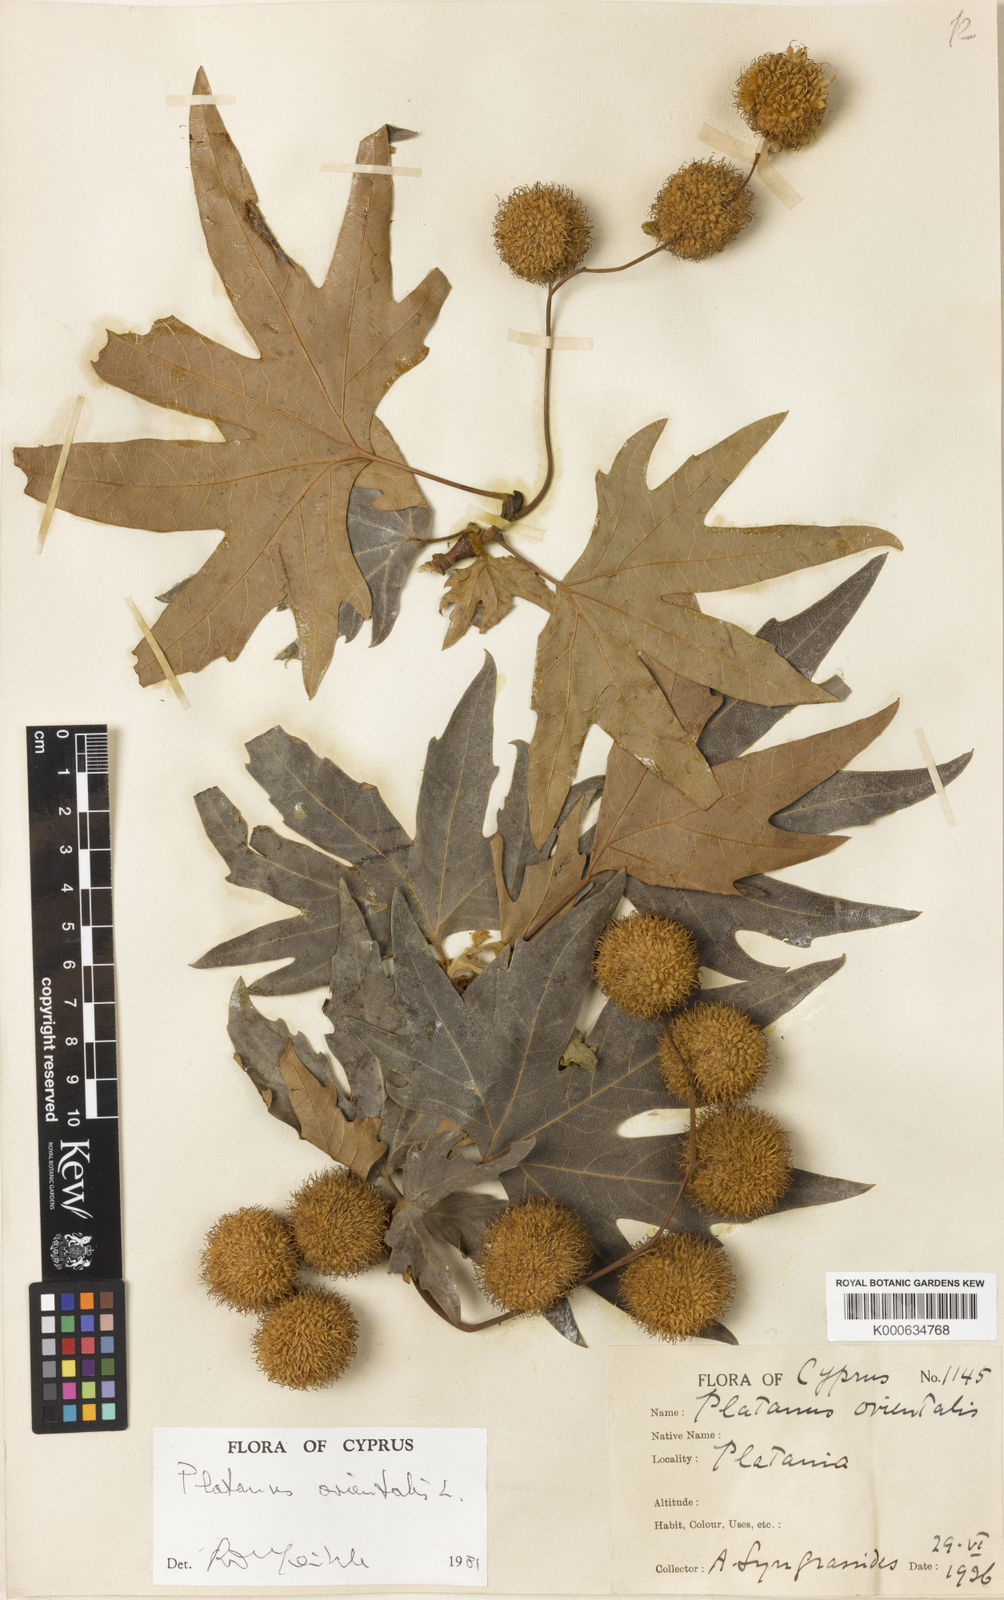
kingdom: Plantae
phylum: Tracheophyta
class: Magnoliopsida
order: Proteales
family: Platanaceae
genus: Platanus
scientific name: Platanus orientalis
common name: Oriental plane
